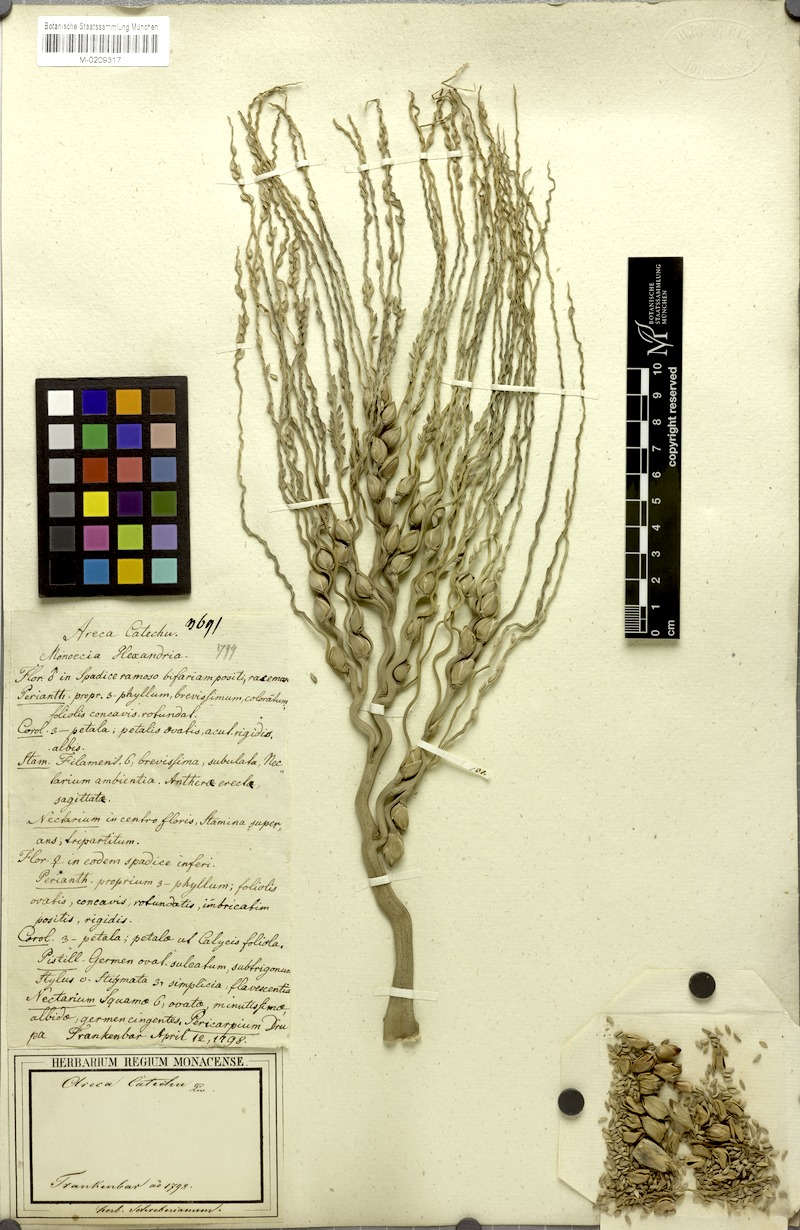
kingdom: Plantae
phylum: Tracheophyta
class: Liliopsida
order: Arecales
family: Arecaceae
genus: Areca
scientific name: Areca catechu
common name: Indian-nut
